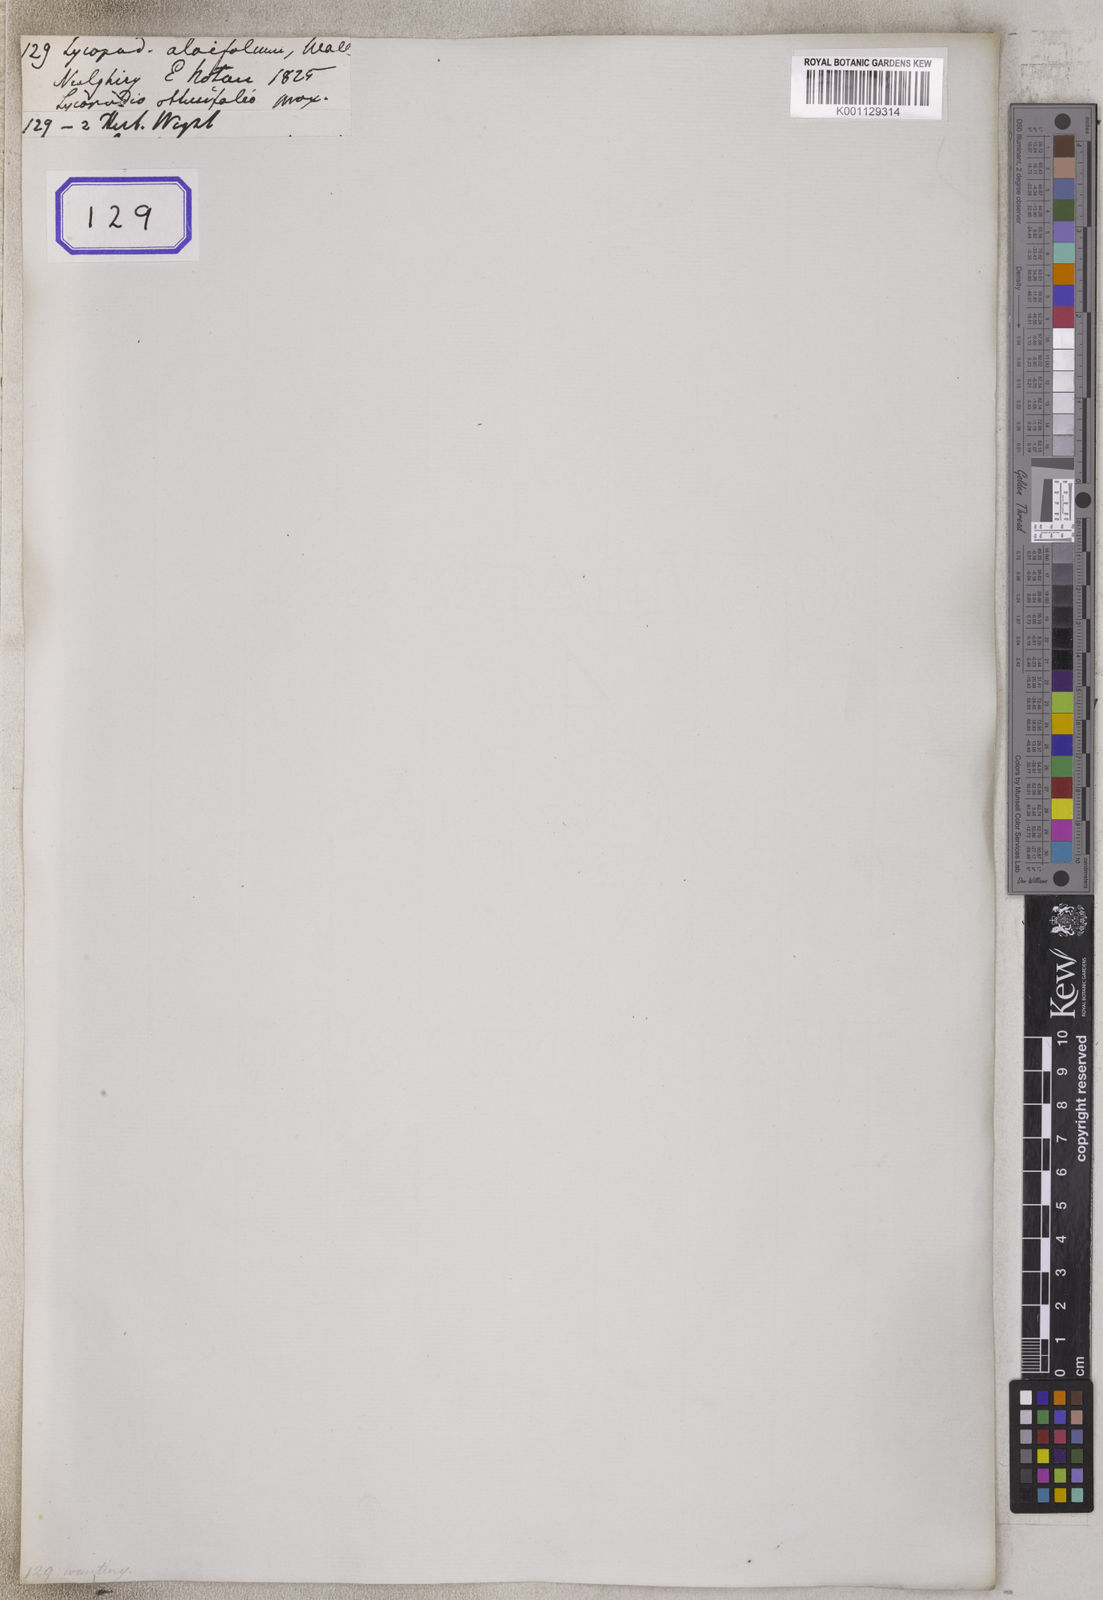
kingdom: Plantae
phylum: Tracheophyta
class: Lycopodiopsida
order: Lycopodiales
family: Lycopodiaceae
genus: Lycopodium
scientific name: Lycopodium
